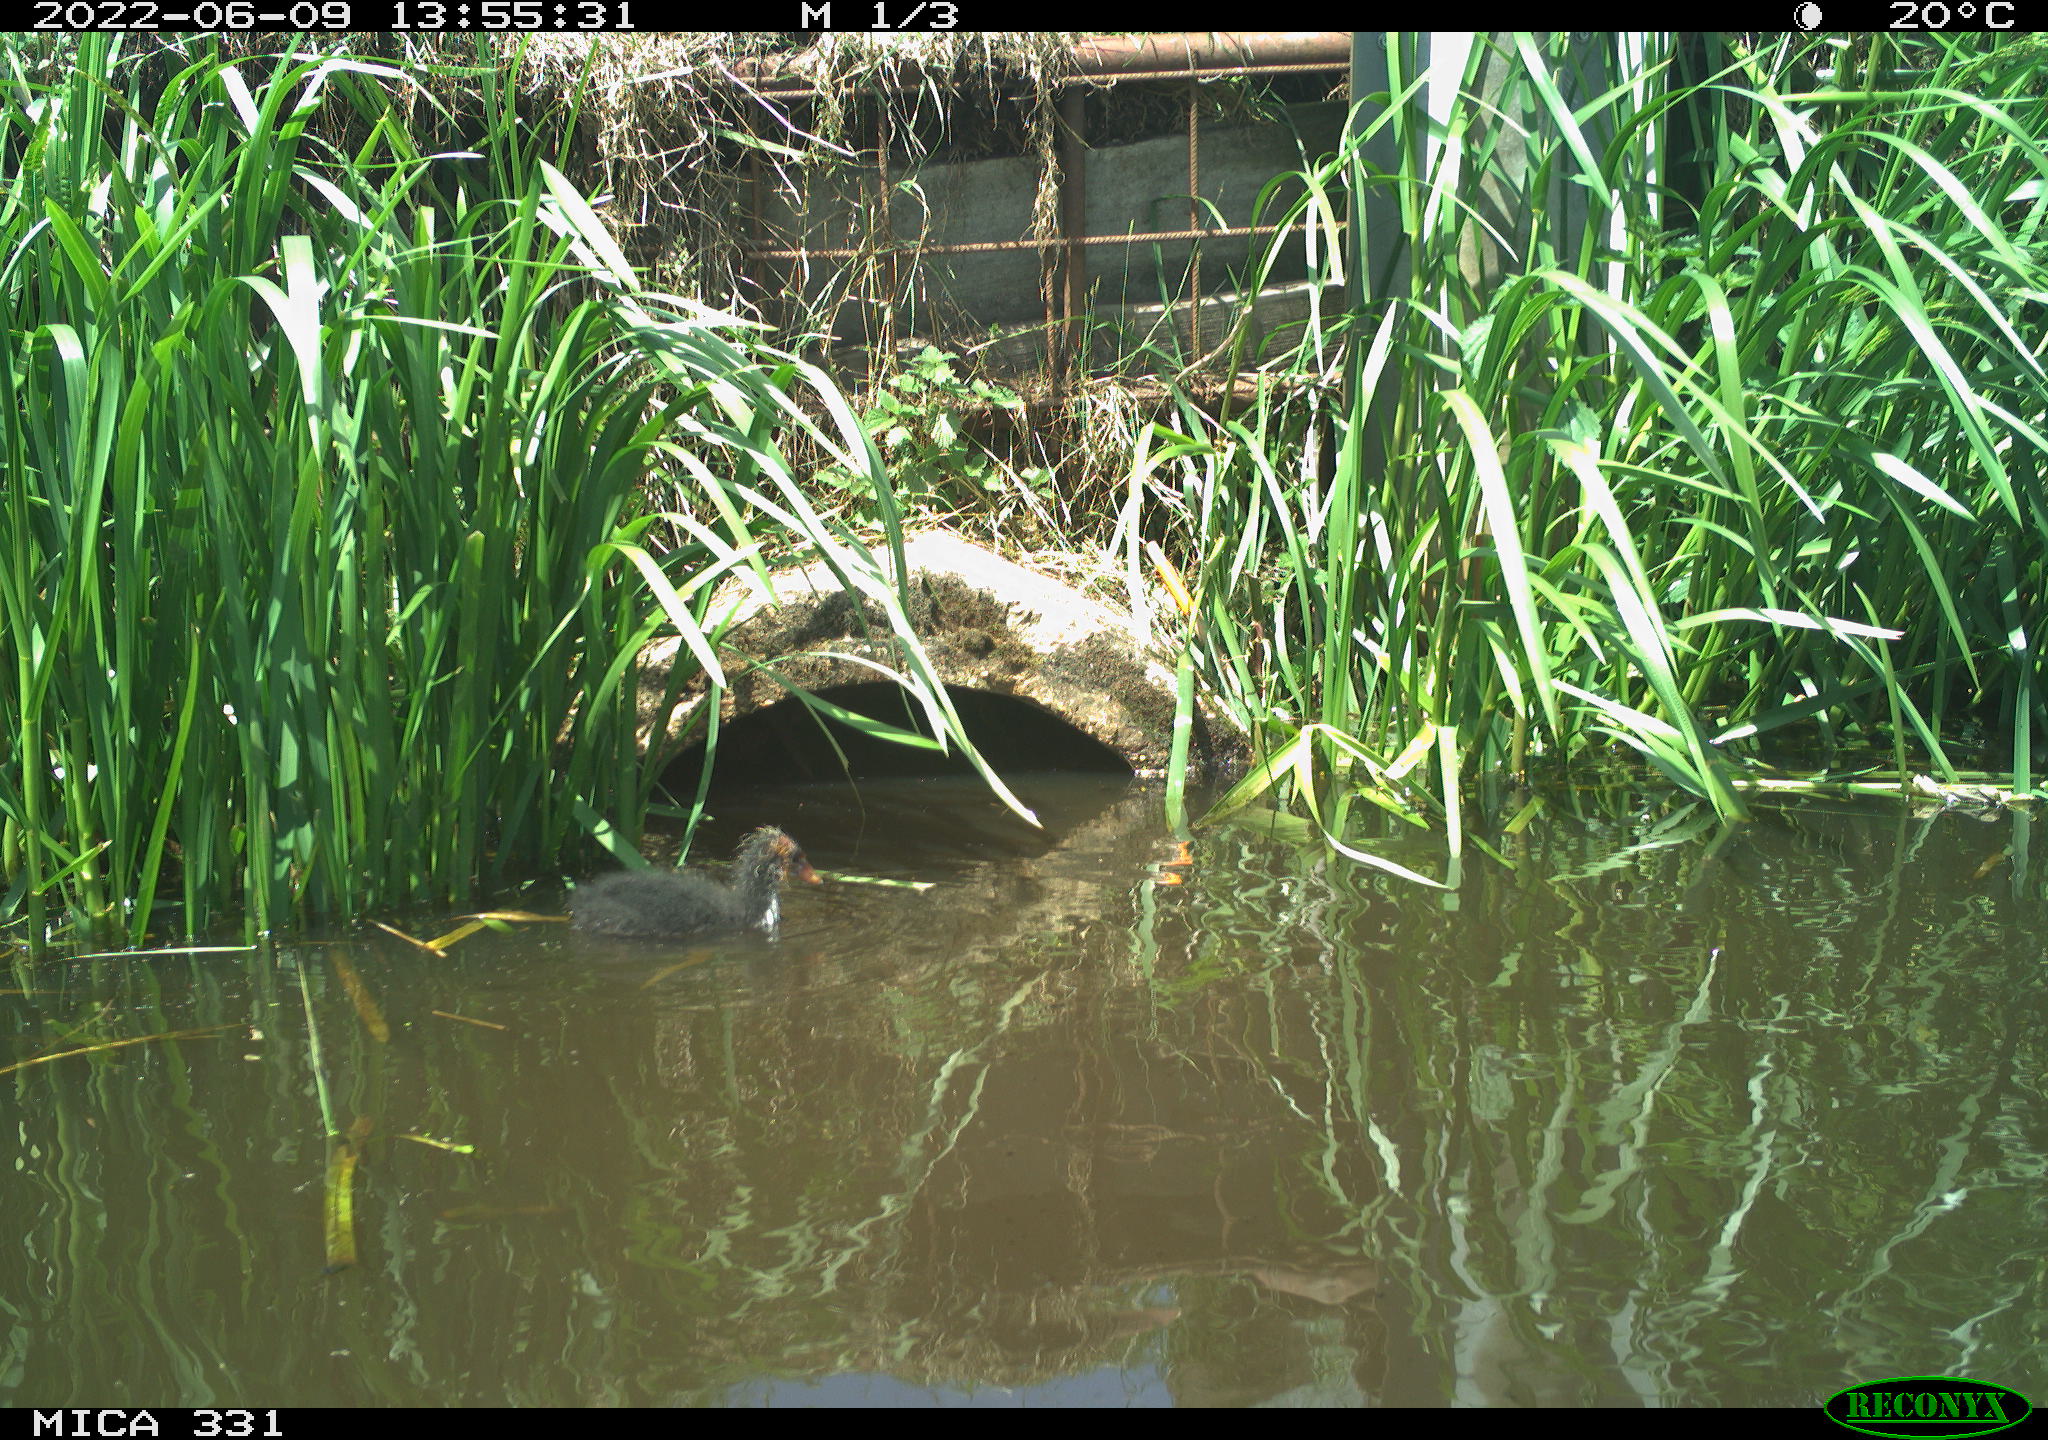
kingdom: Animalia
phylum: Chordata
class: Aves
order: Gruiformes
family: Rallidae
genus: Fulica
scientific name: Fulica atra
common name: Eurasian coot
